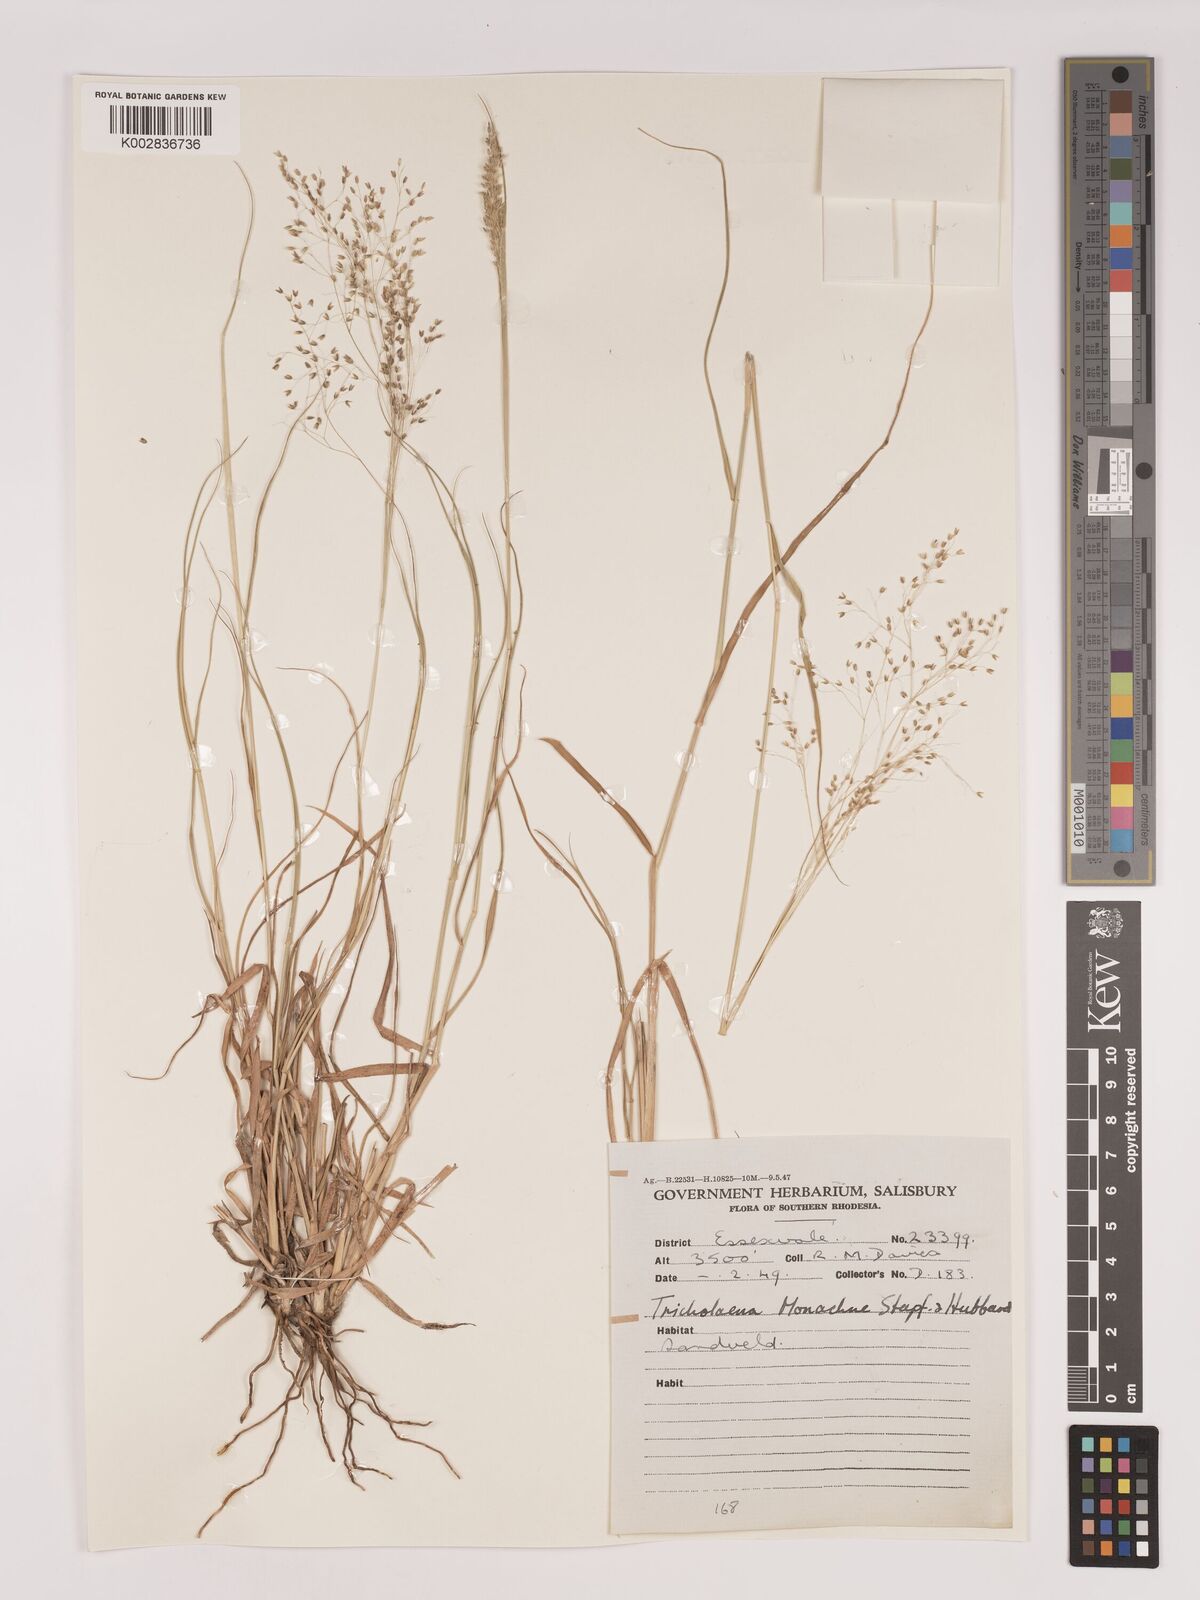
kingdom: Plantae
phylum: Tracheophyta
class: Liliopsida
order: Poales
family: Poaceae
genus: Tricholaena
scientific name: Tricholaena monachne
